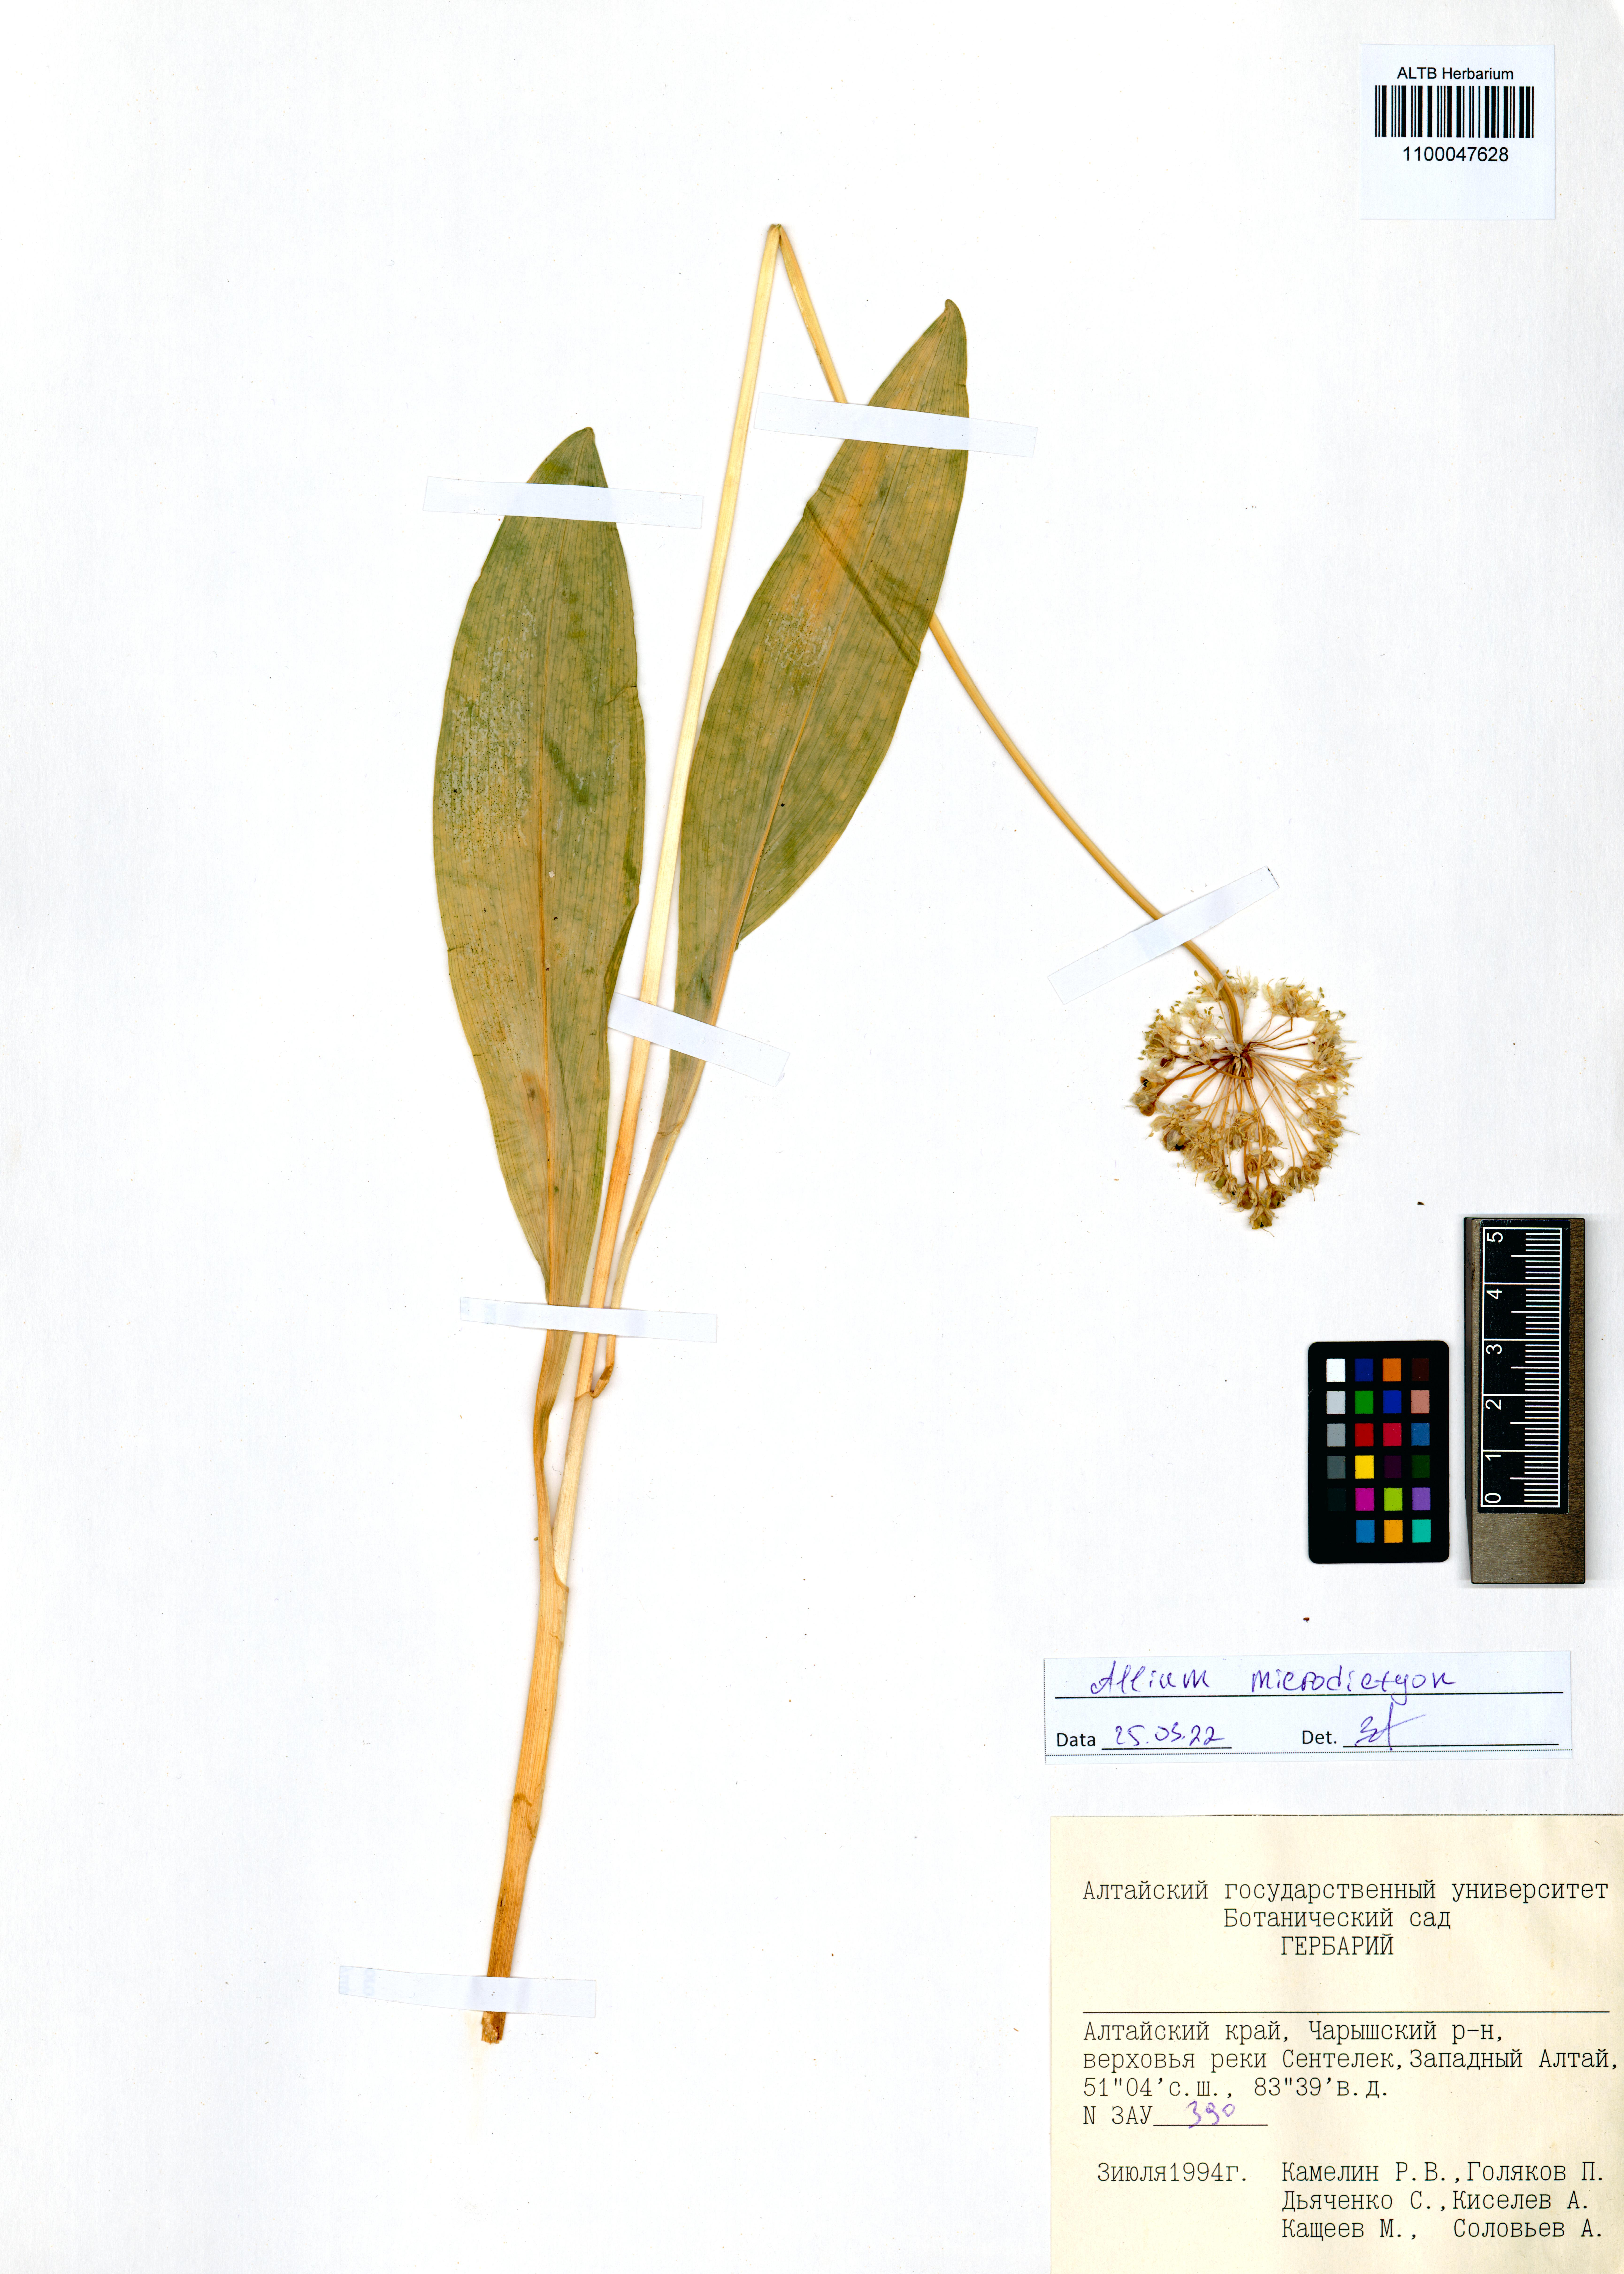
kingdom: Plantae
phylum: Tracheophyta
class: Liliopsida
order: Asparagales
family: Amaryllidaceae
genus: Allium
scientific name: Allium microdictyon
